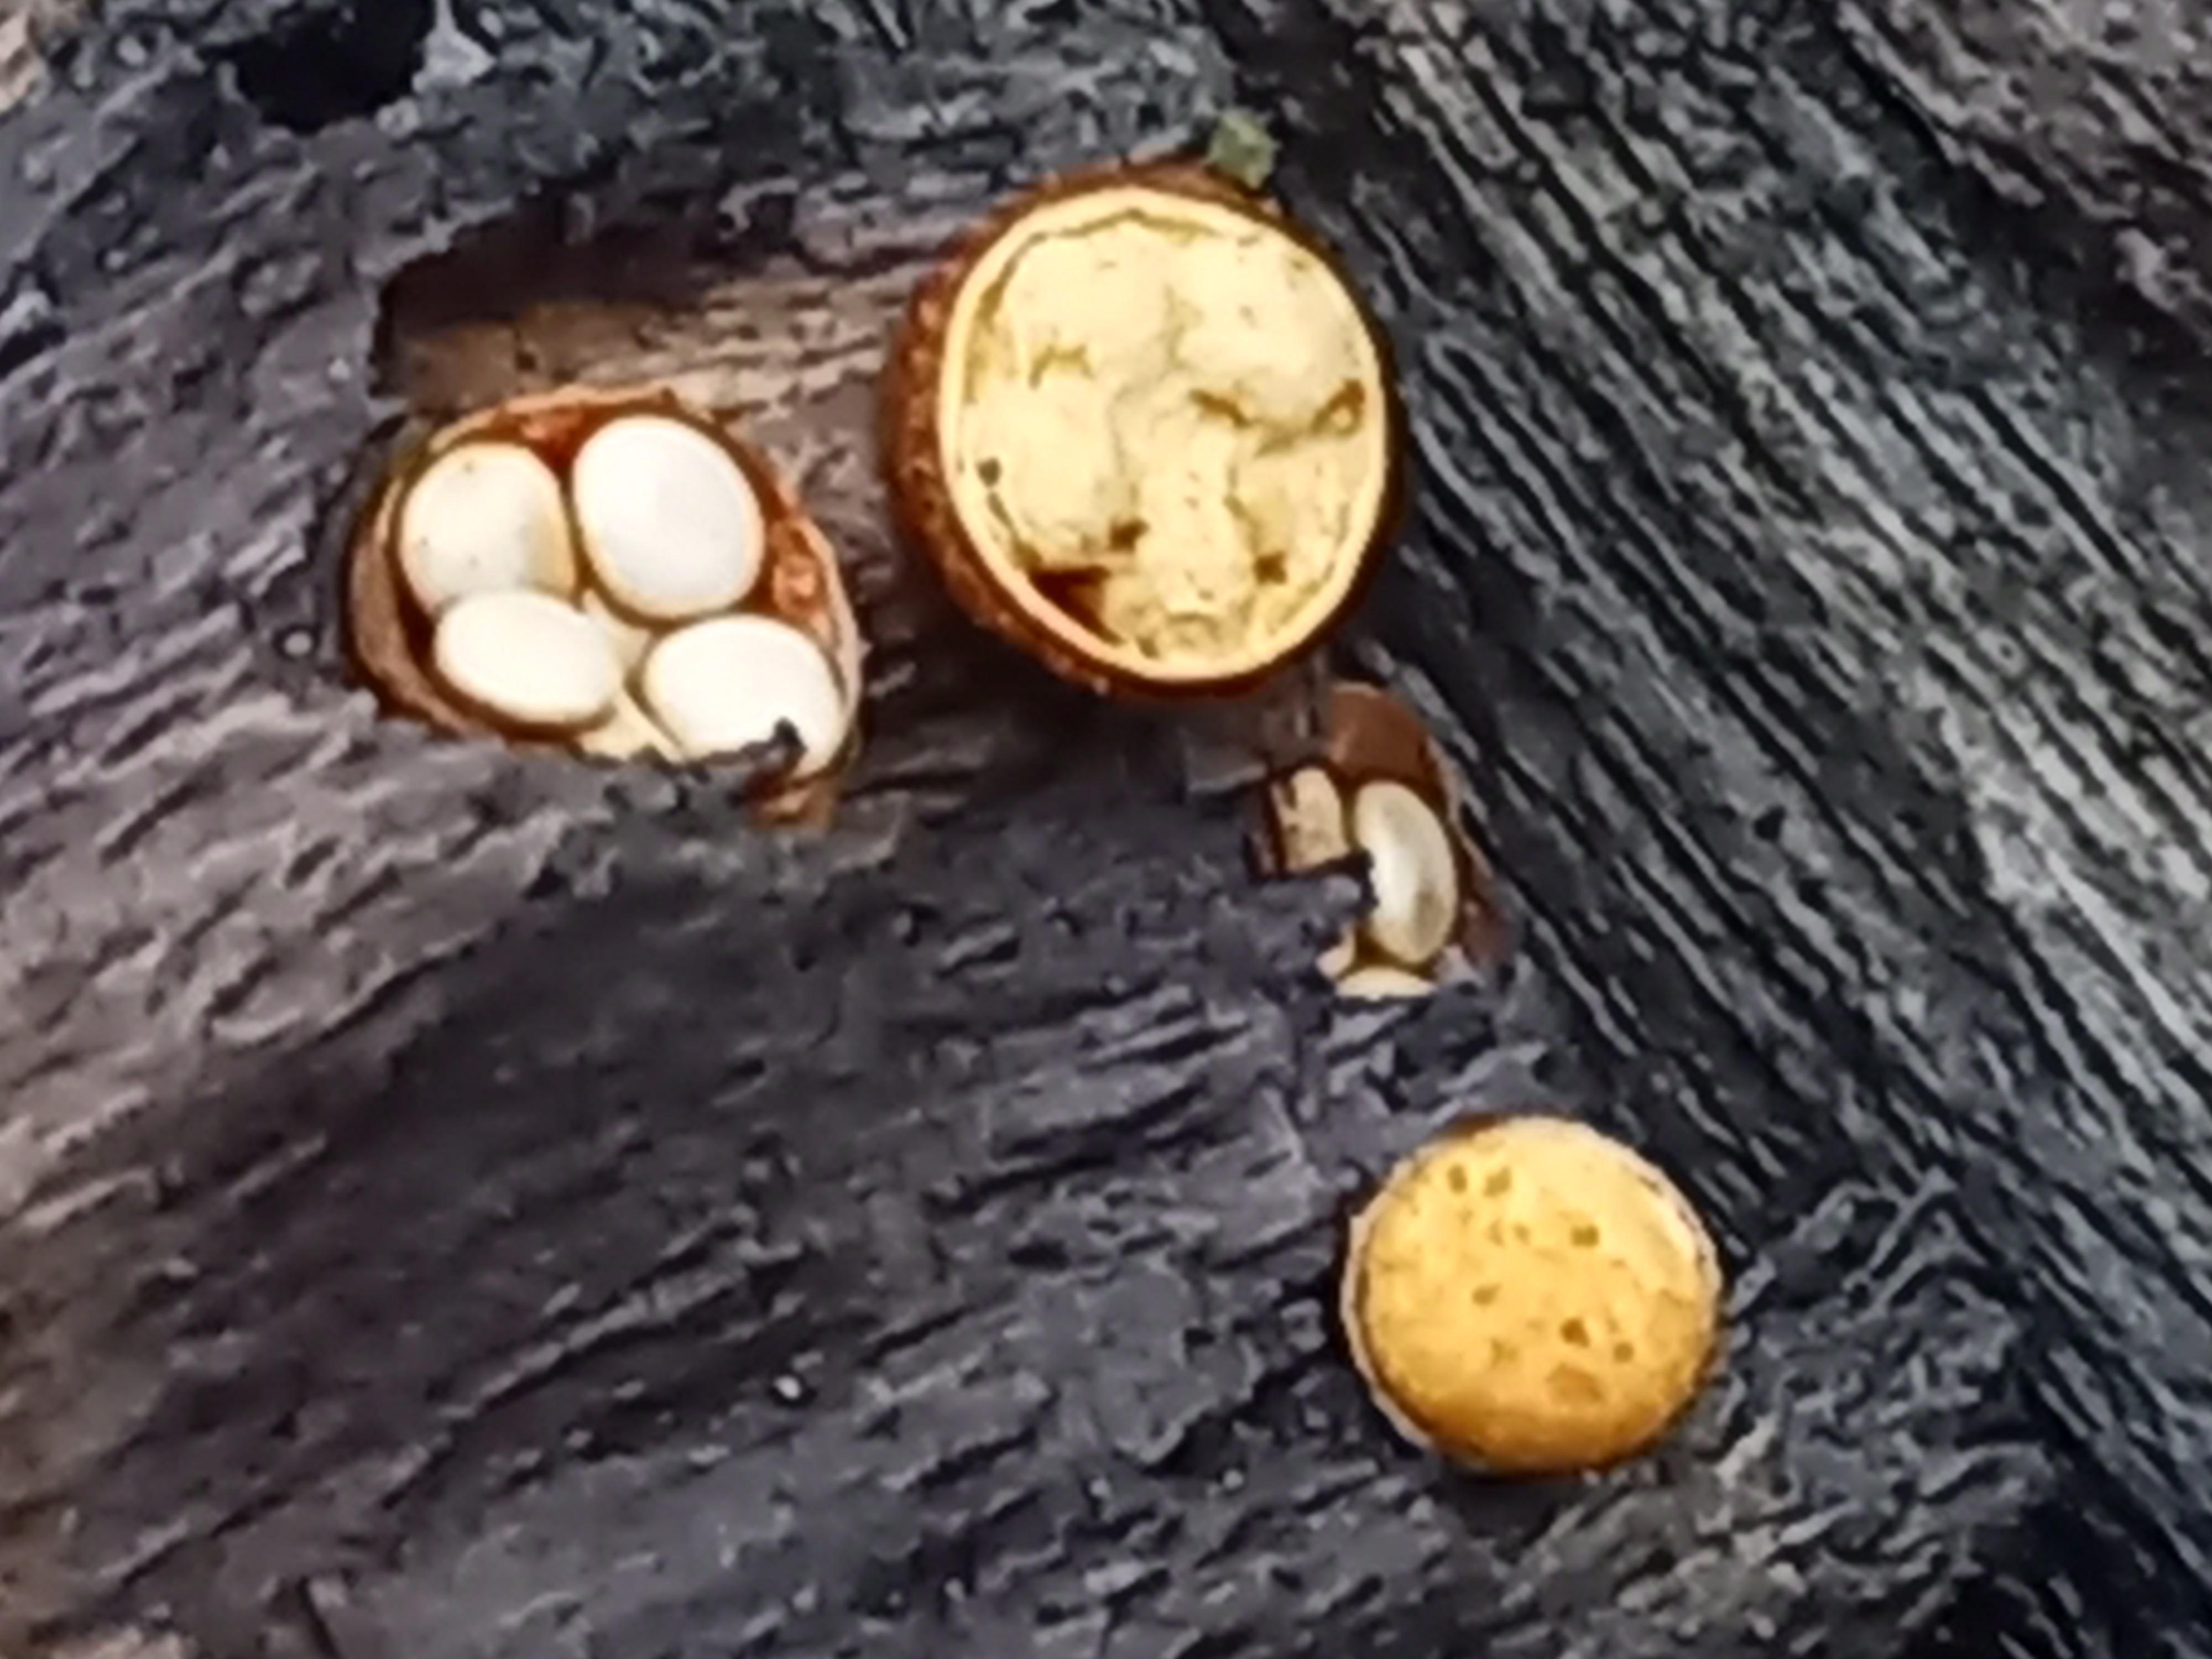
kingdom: Fungi
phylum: Basidiomycota
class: Agaricomycetes
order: Agaricales
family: Nidulariaceae
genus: Crucibulum
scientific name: Crucibulum crucibuliforme
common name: krukkesvamp
